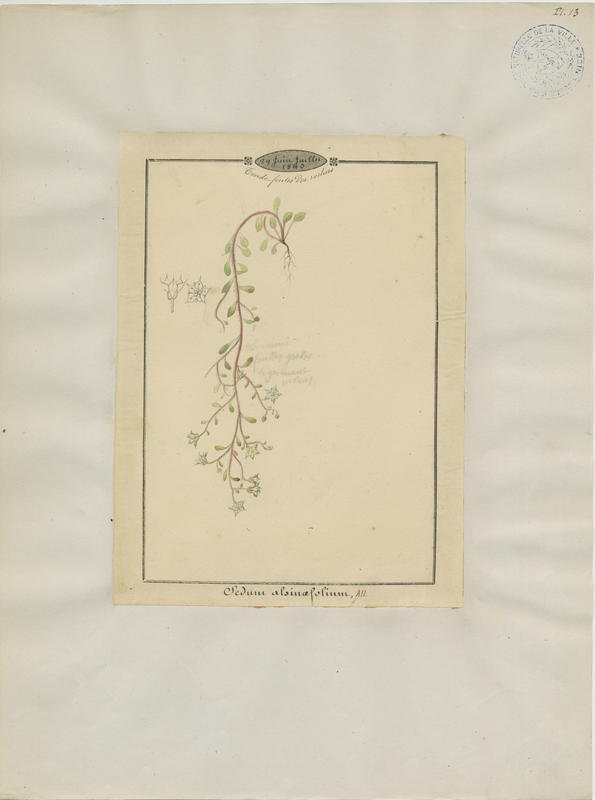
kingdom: Plantae
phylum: Tracheophyta
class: Magnoliopsida
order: Saxifragales
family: Crassulaceae
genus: Sedum
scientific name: Sedum fragrans
